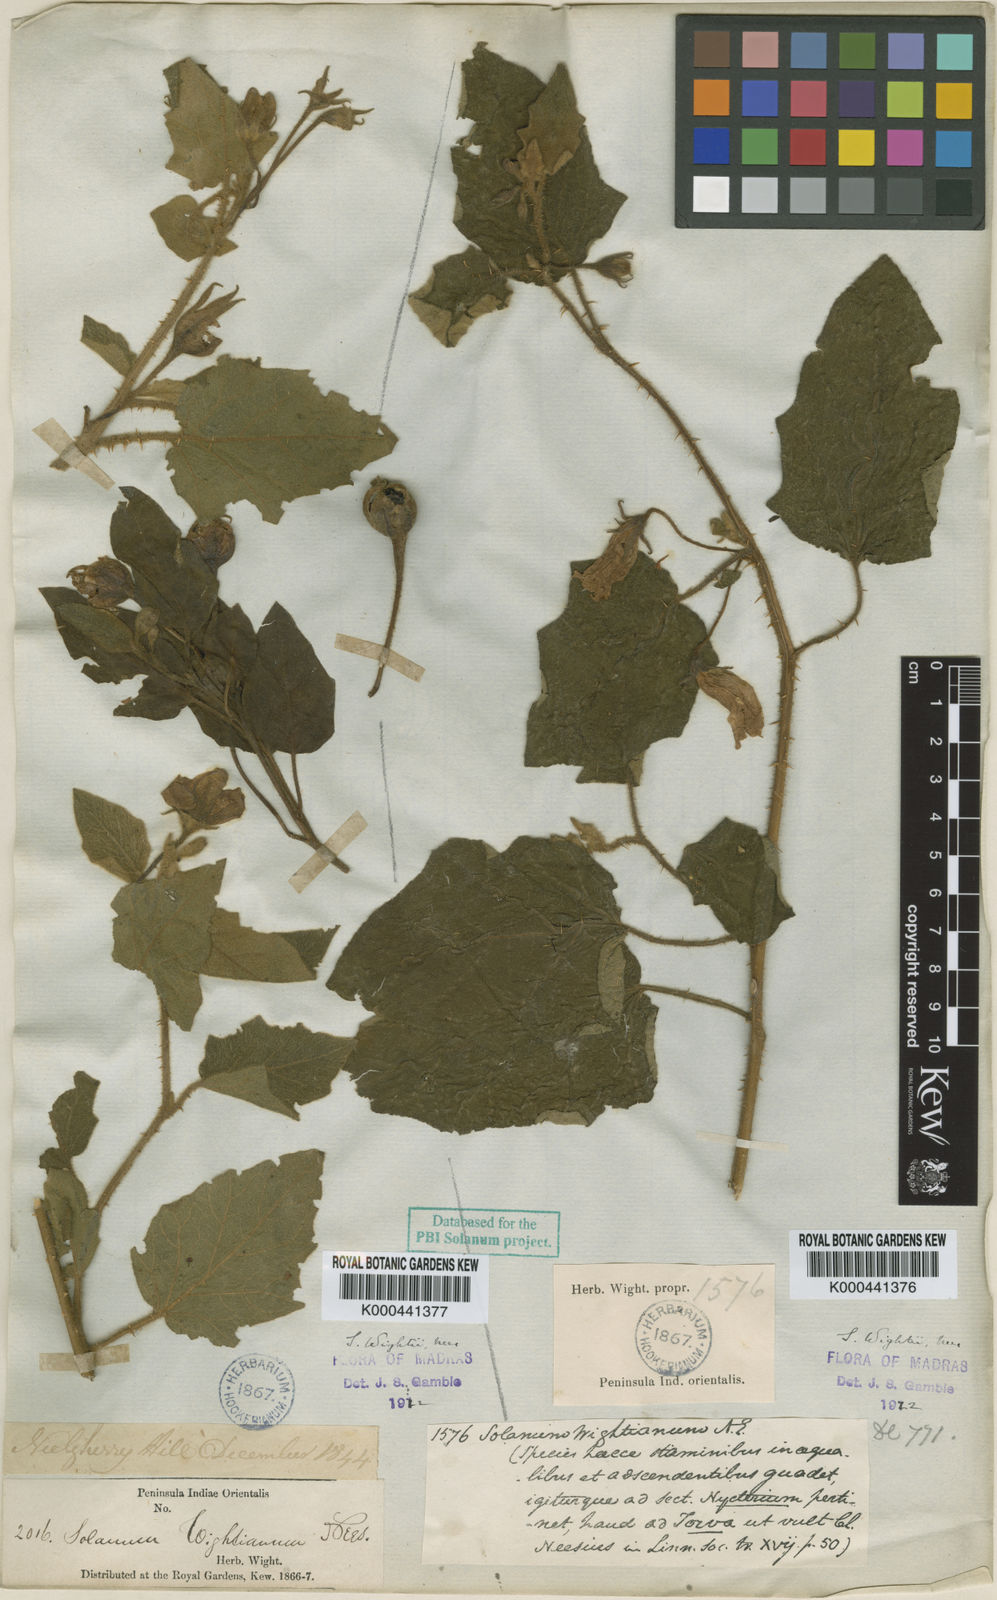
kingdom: Plantae
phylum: Tracheophyta
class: Magnoliopsida
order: Solanales
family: Solanaceae
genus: Solanum
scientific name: Solanum wightii
